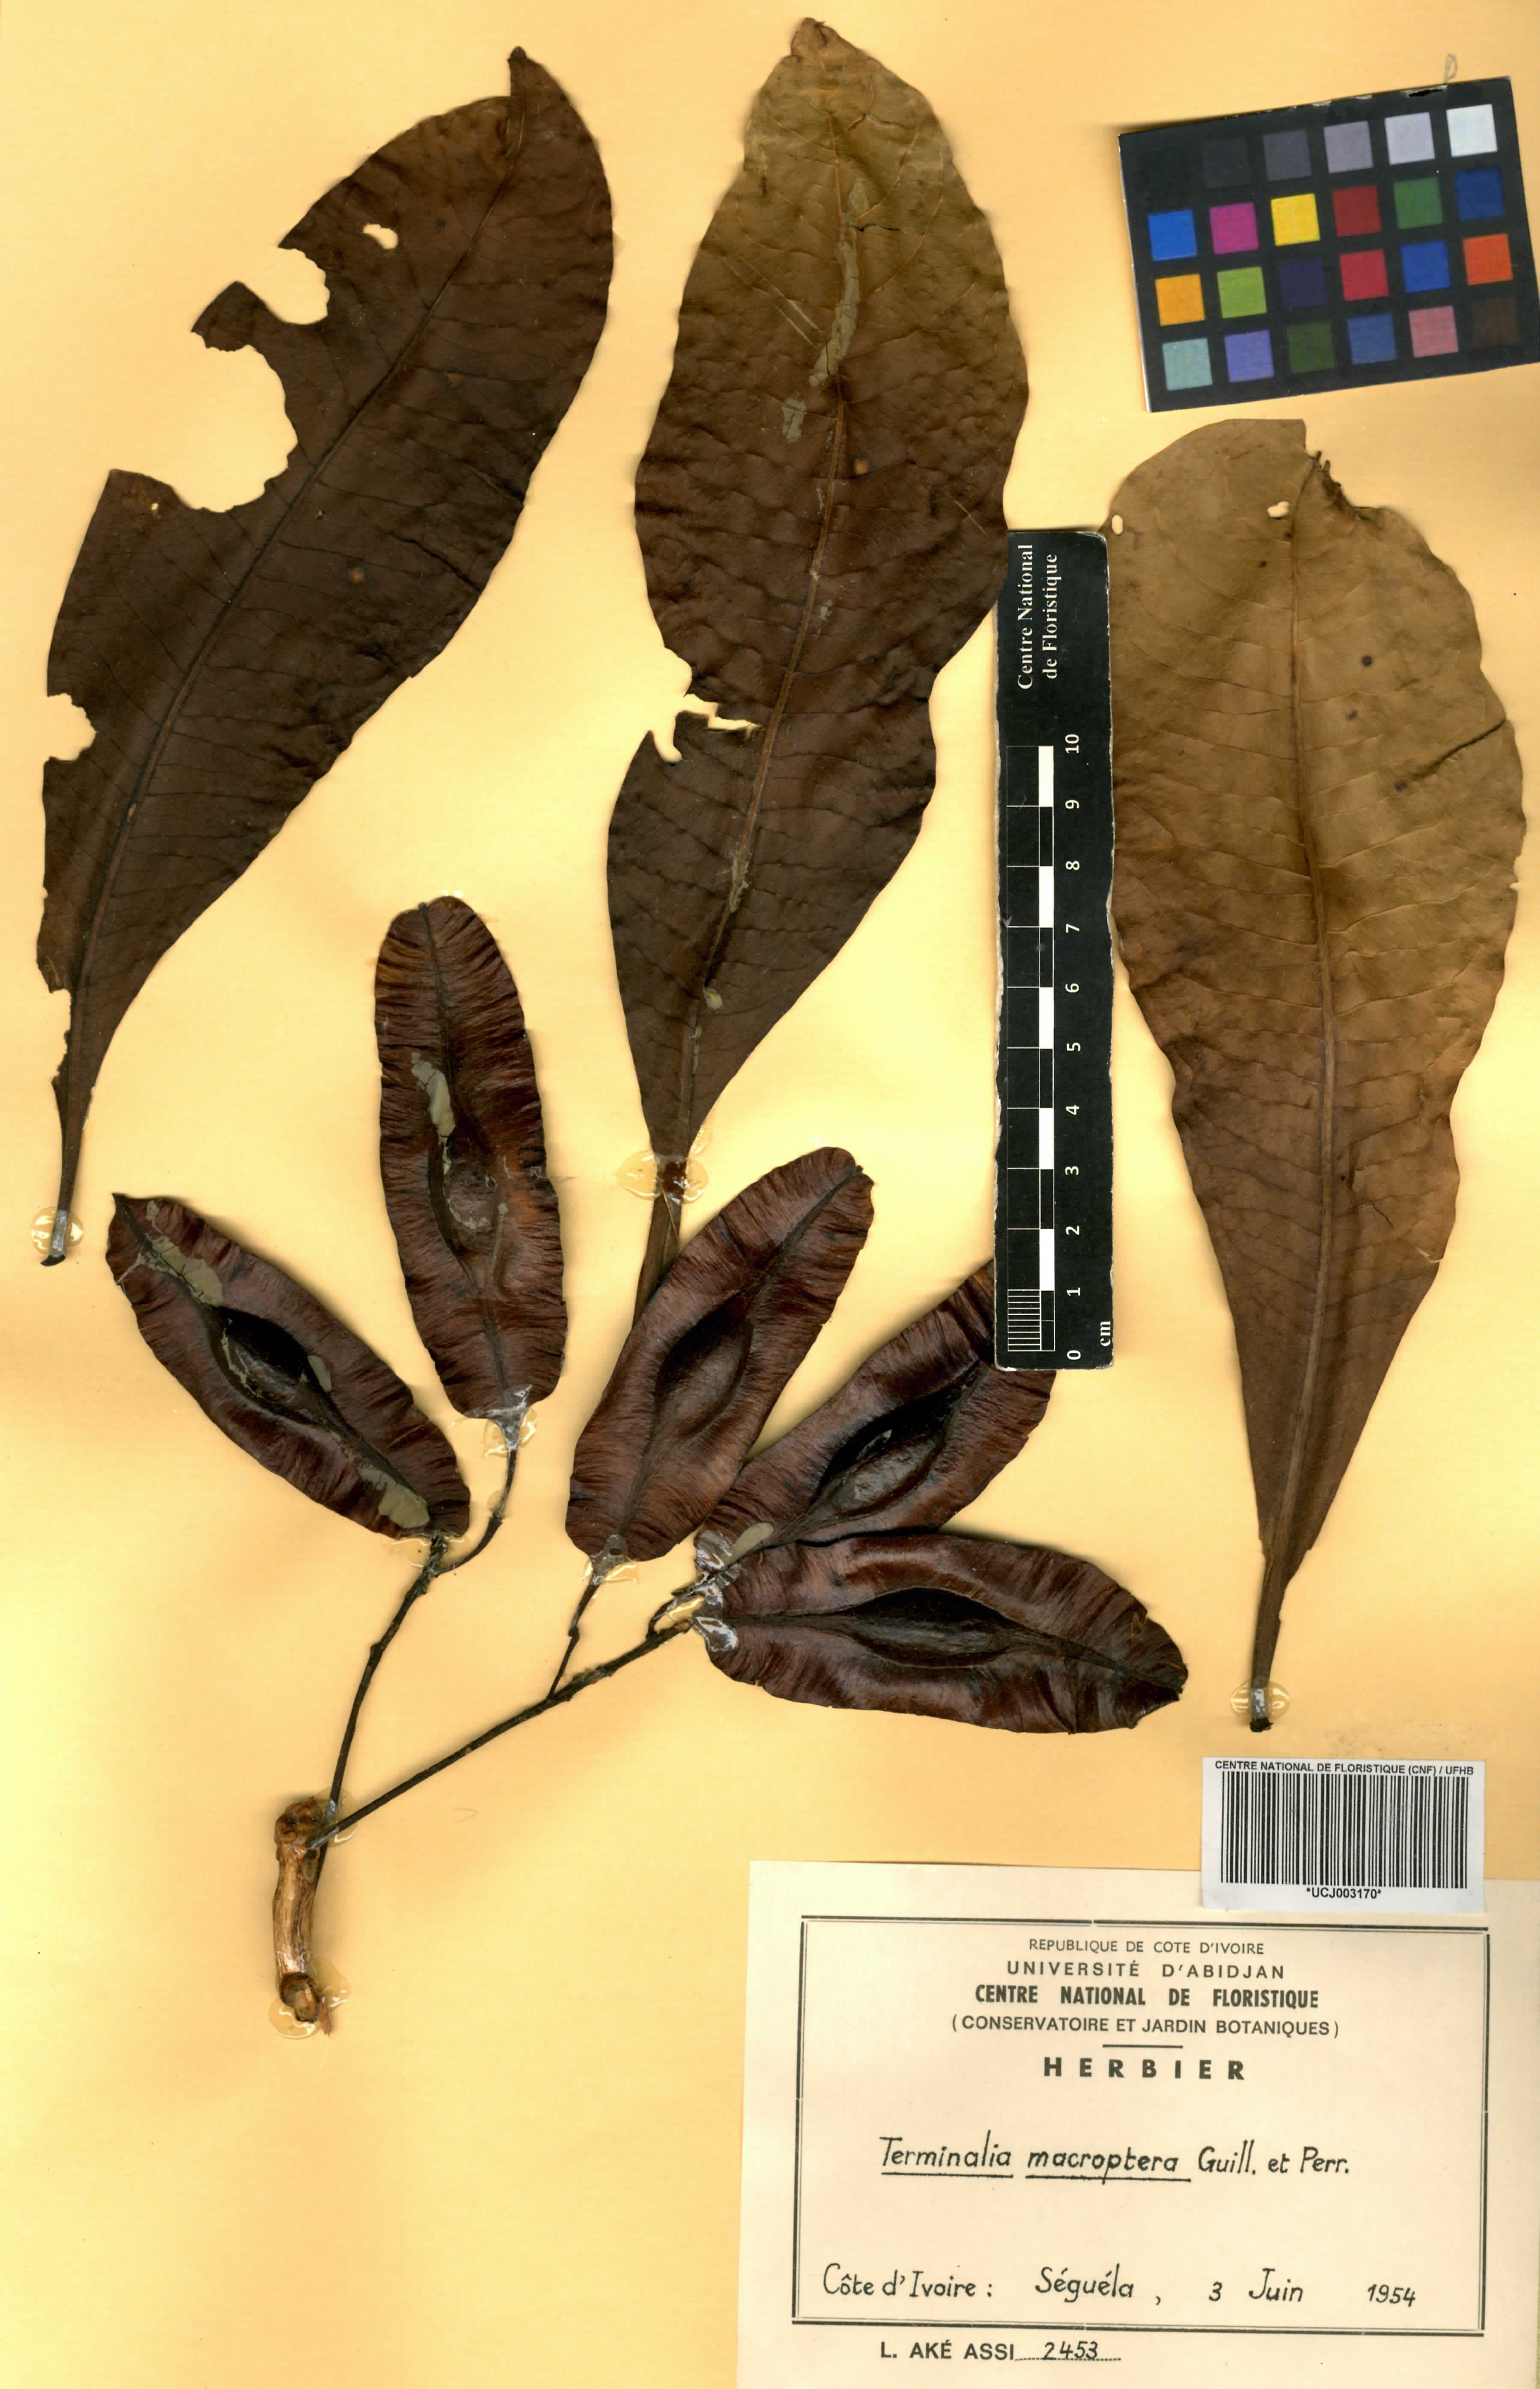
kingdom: Plantae
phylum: Tracheophyta
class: Magnoliopsida
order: Myrtales
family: Combretaceae
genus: Terminalia
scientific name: Terminalia macroptera
